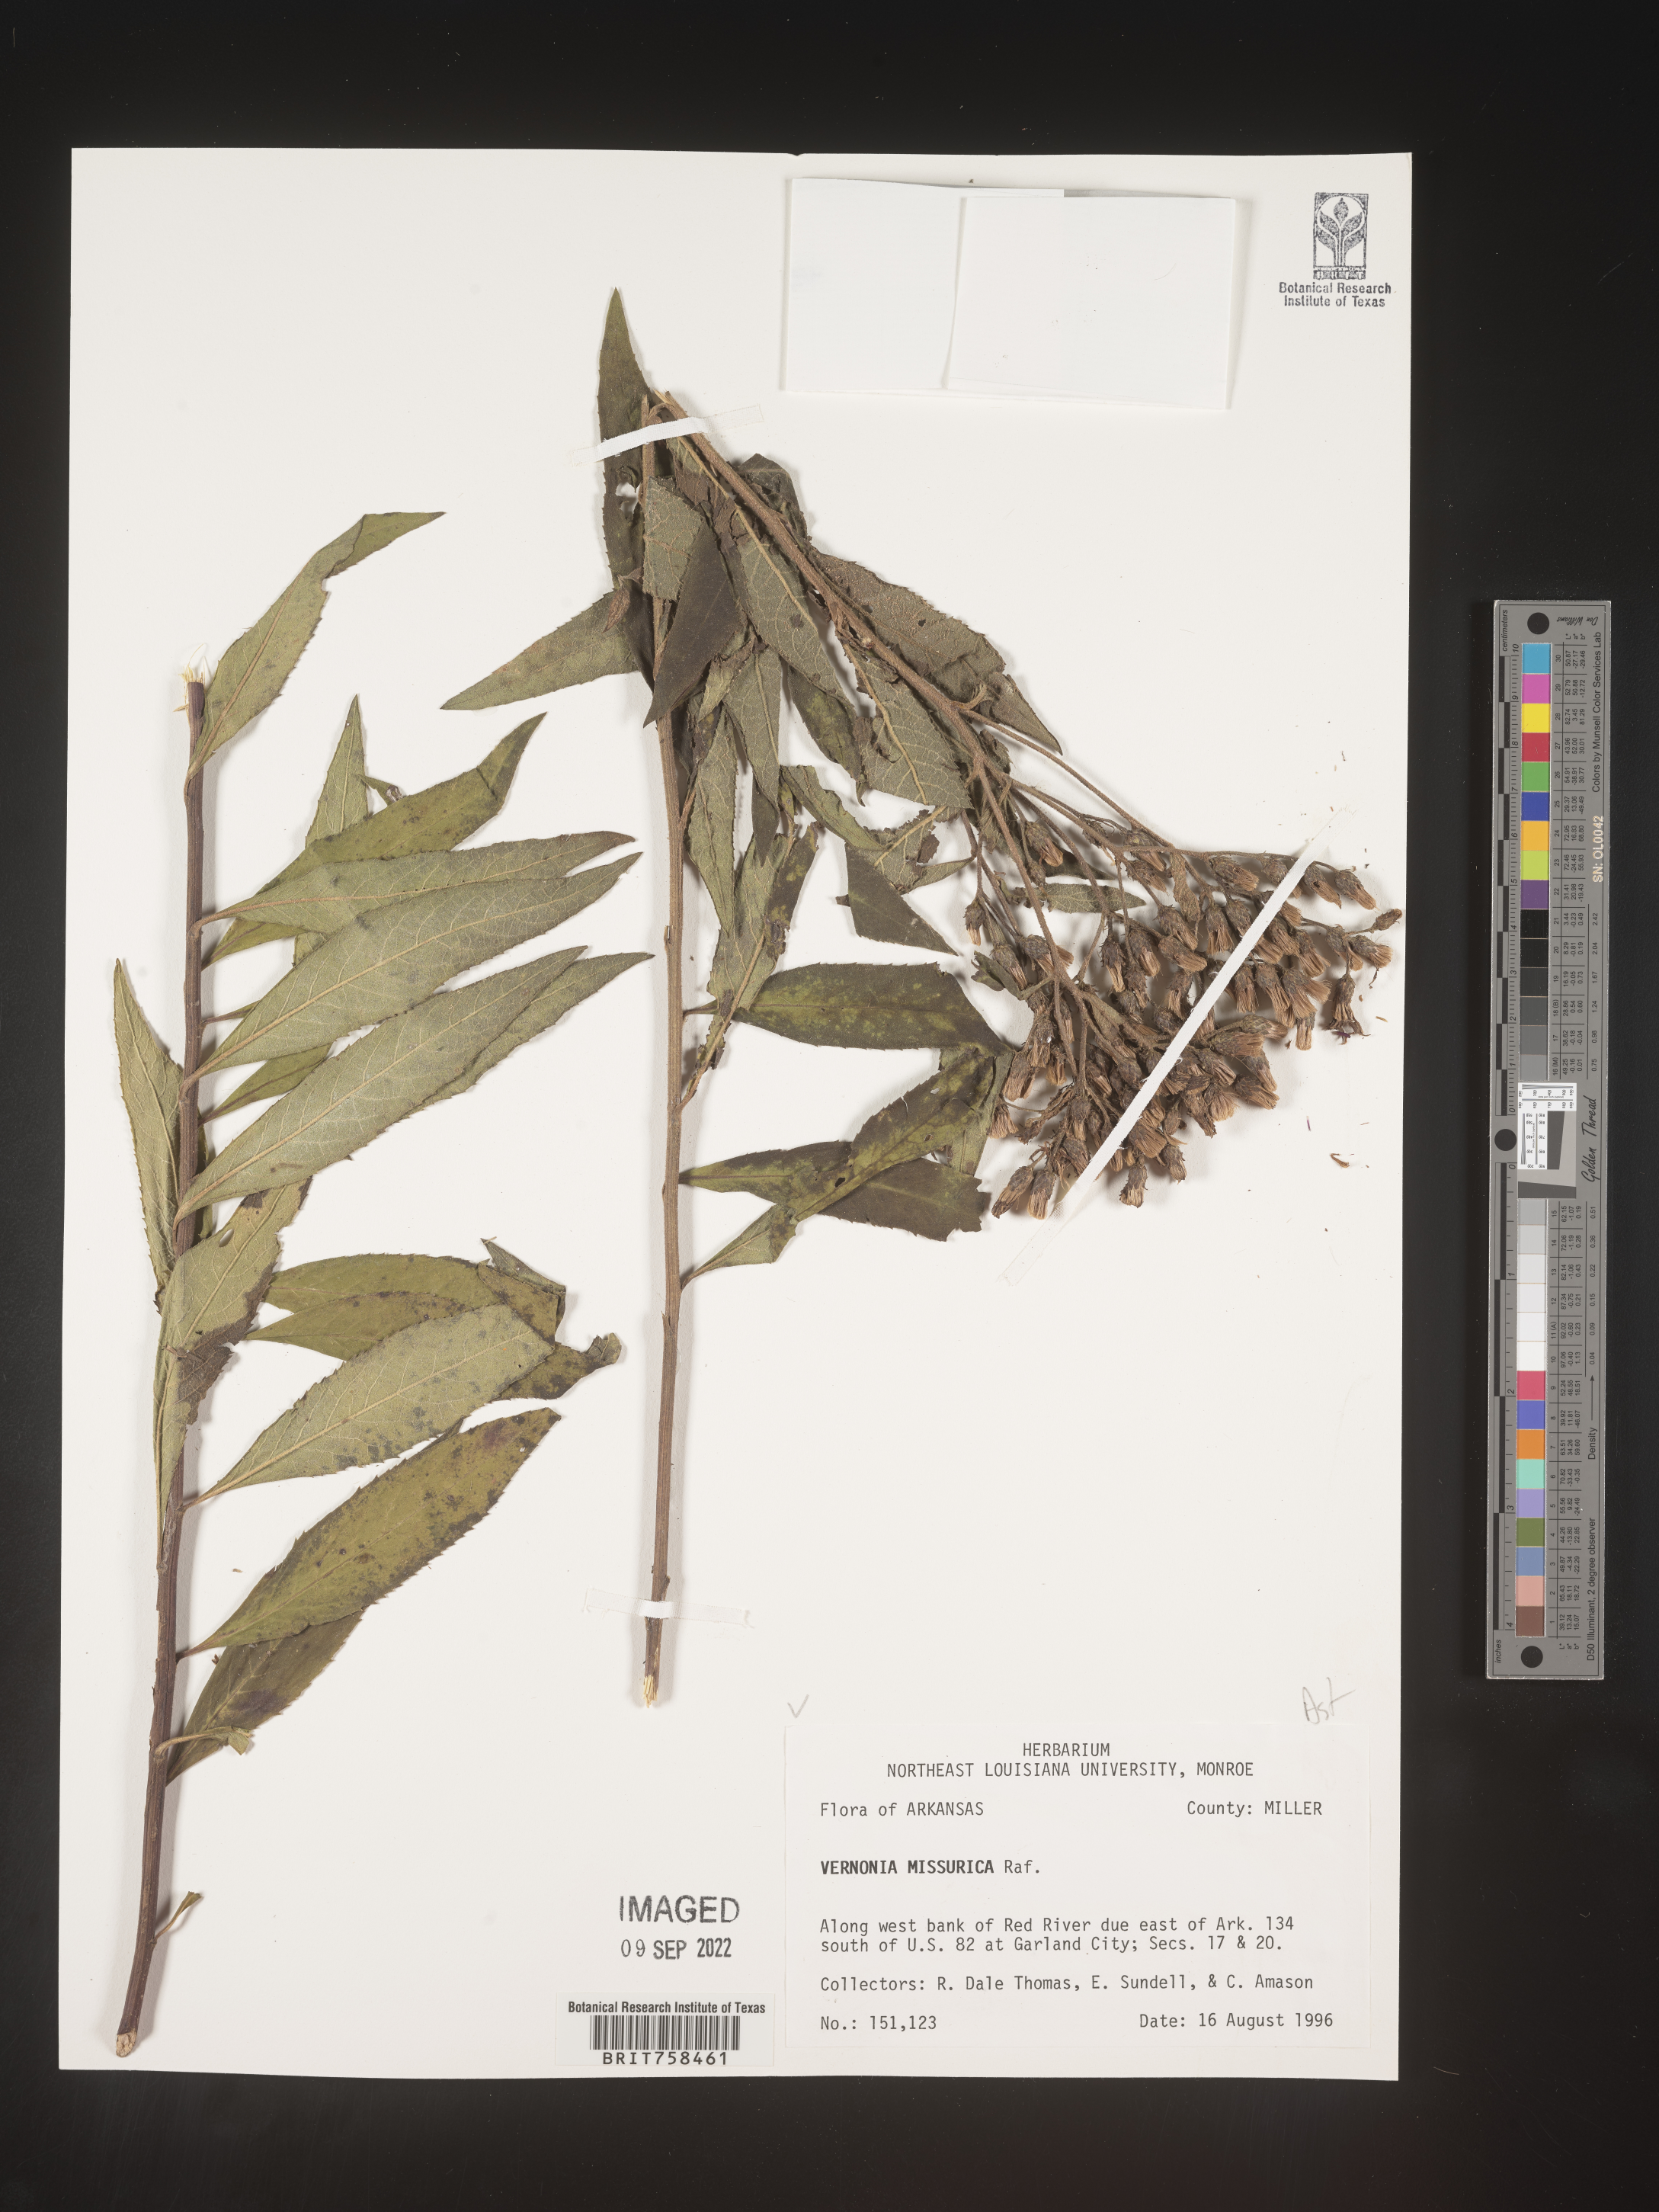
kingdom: Plantae
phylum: Tracheophyta
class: Magnoliopsida
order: Asterales
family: Asteraceae
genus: Vernonia
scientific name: Vernonia missurica
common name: Missouri ironweed
